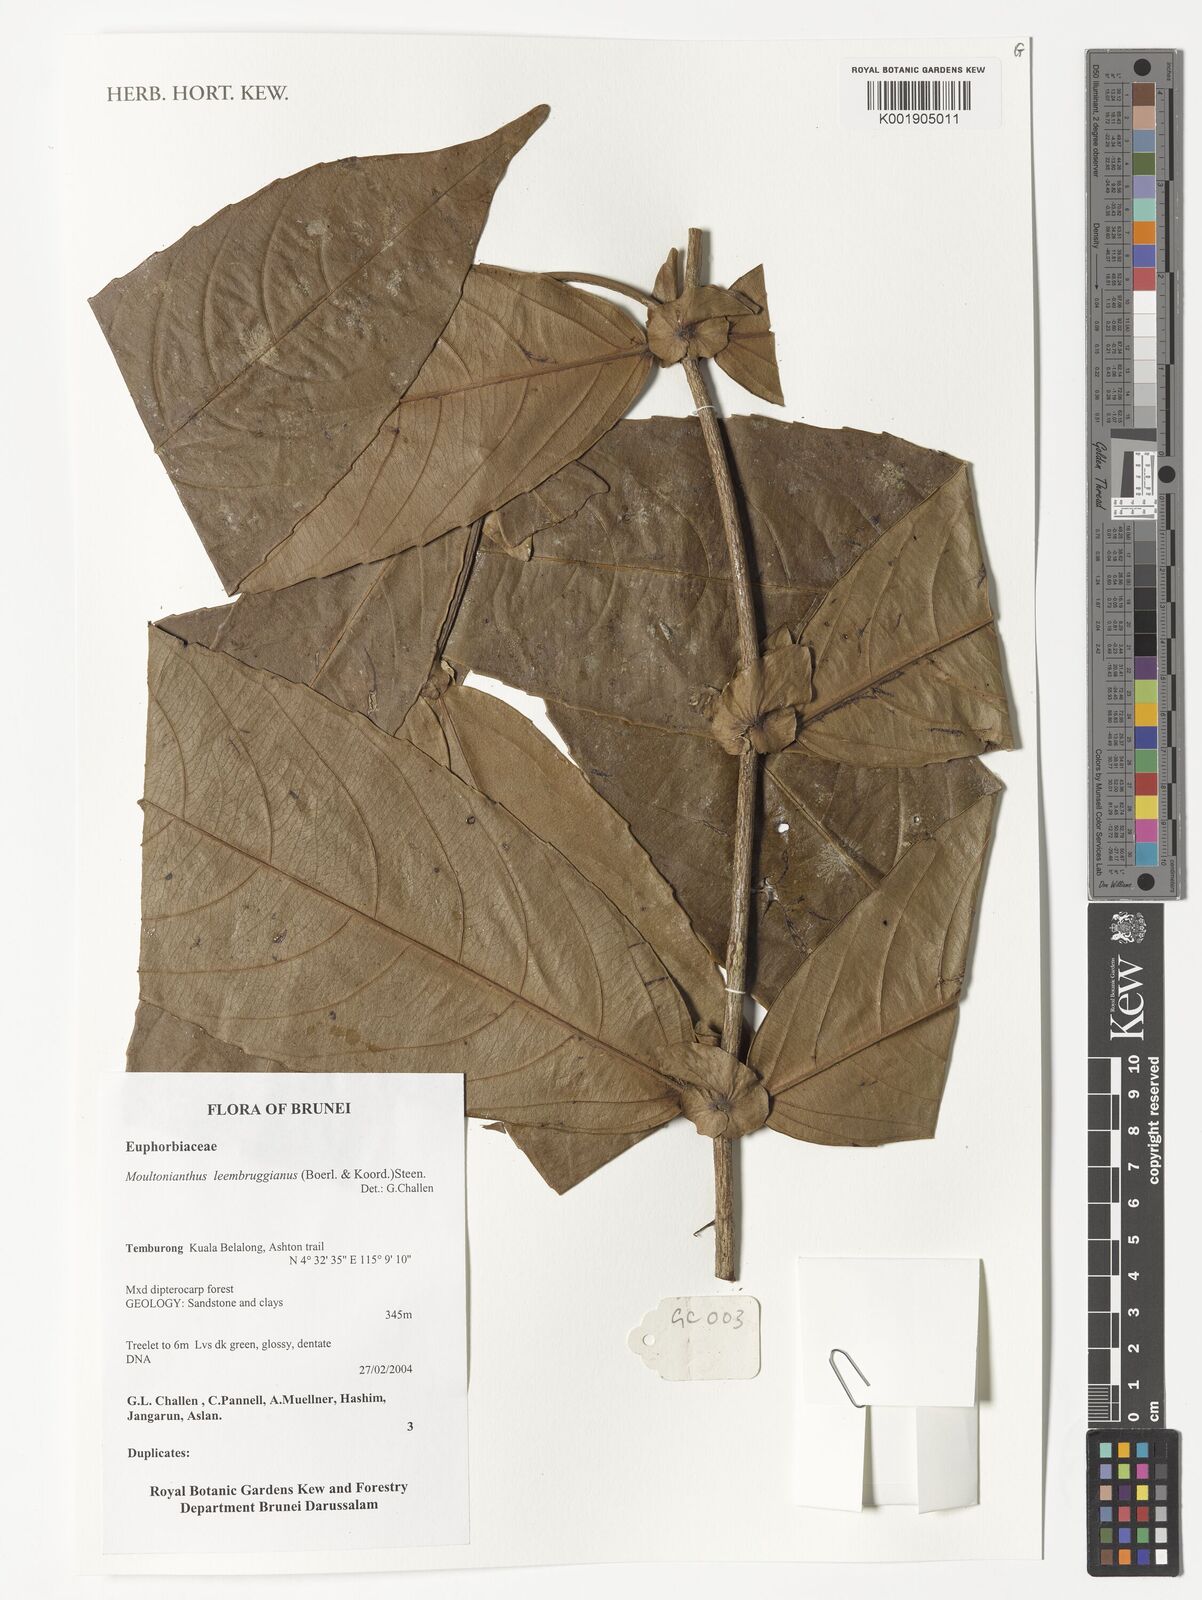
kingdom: Plantae
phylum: Tracheophyta
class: Magnoliopsida
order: Malpighiales
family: Euphorbiaceae
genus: Moultonianthus
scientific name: Moultonianthus leembruggianus
